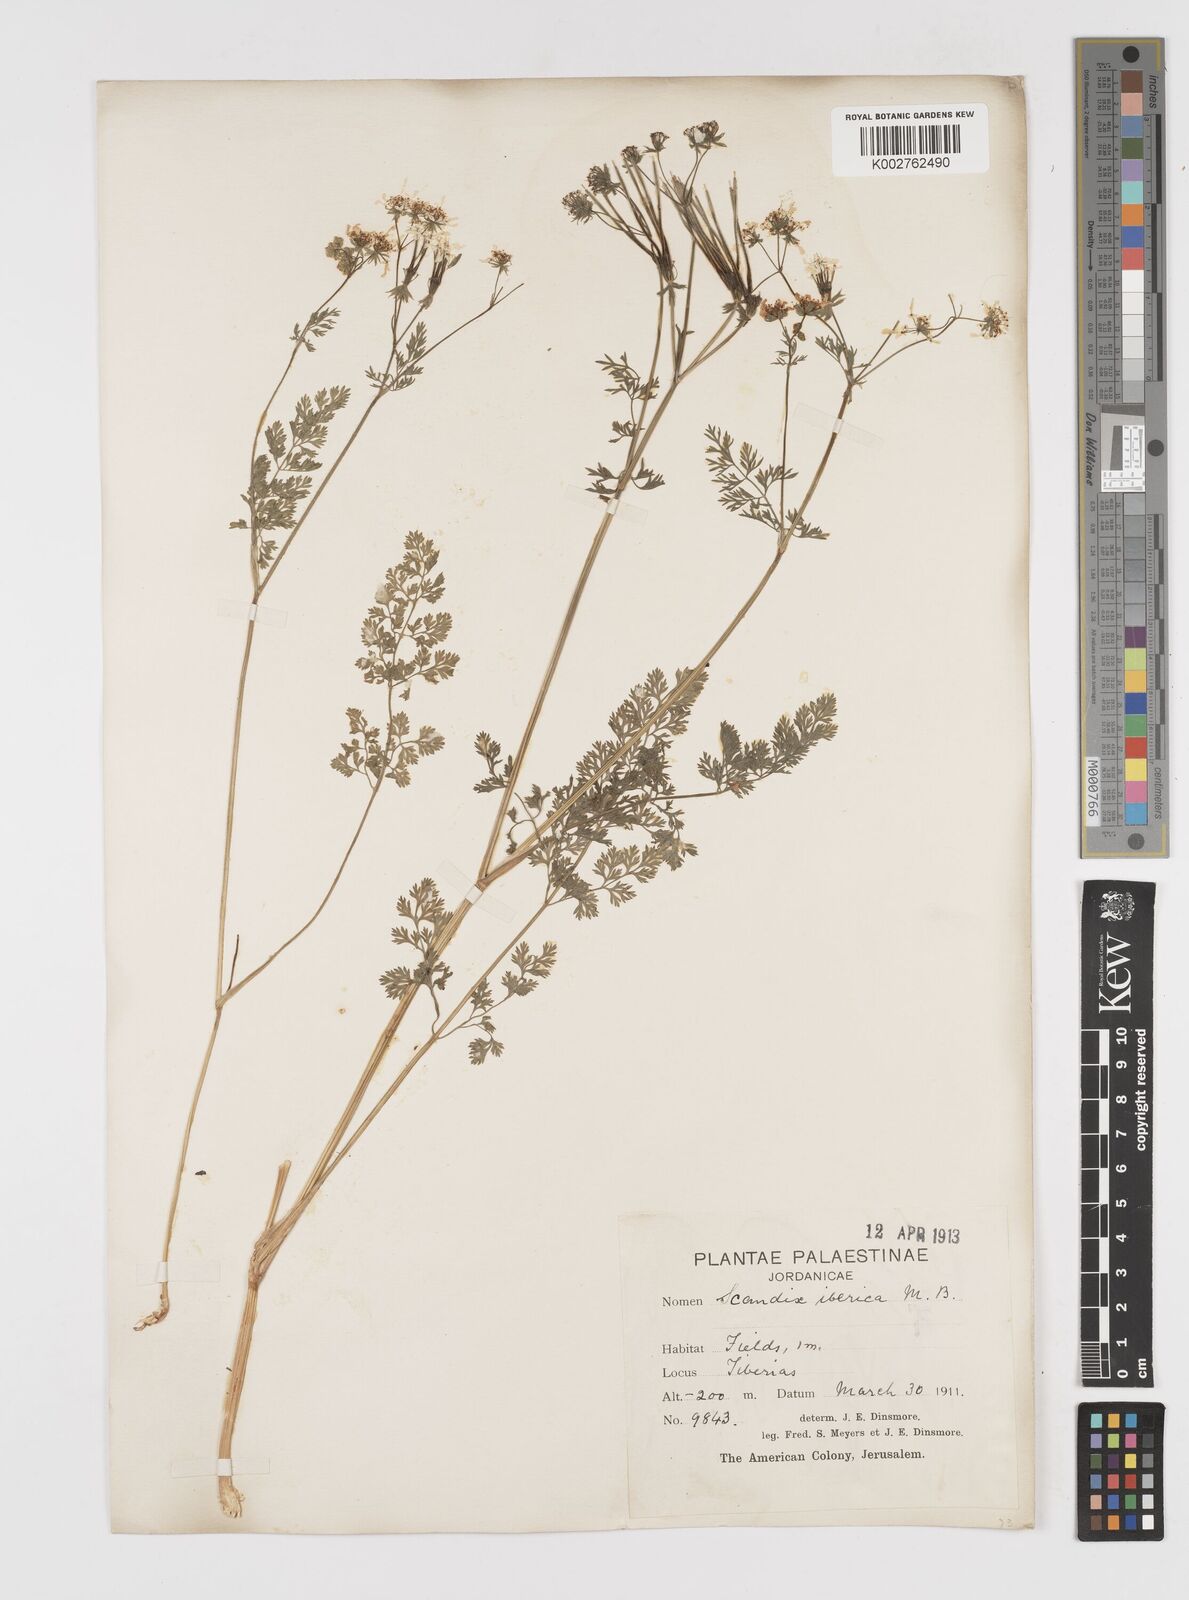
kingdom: Plantae
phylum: Tracheophyta
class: Magnoliopsida
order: Apiales
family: Apiaceae
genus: Scandix
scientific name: Scandix iberica
